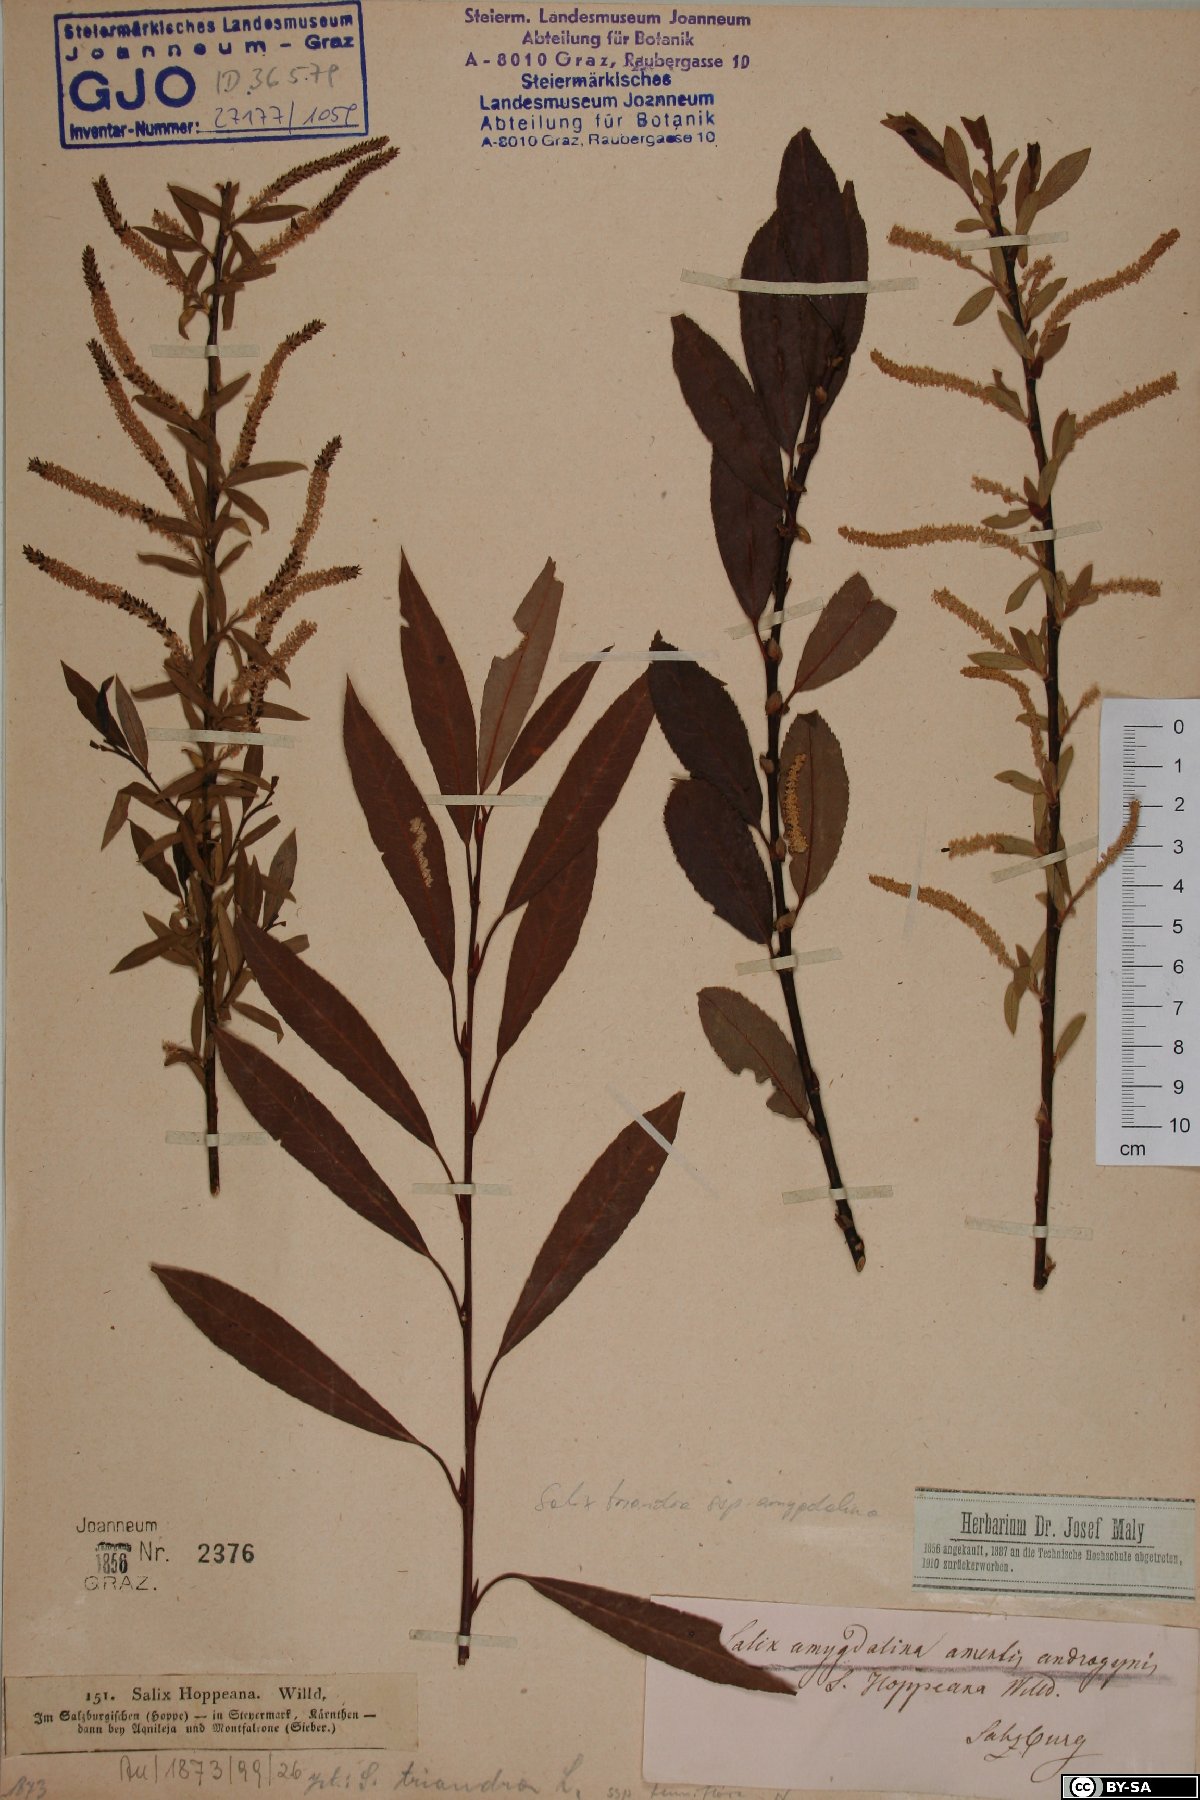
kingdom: Plantae
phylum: Tracheophyta
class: Magnoliopsida
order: Malpighiales
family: Salicaceae
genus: Salix
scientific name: Salix triandra
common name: Almond willow
